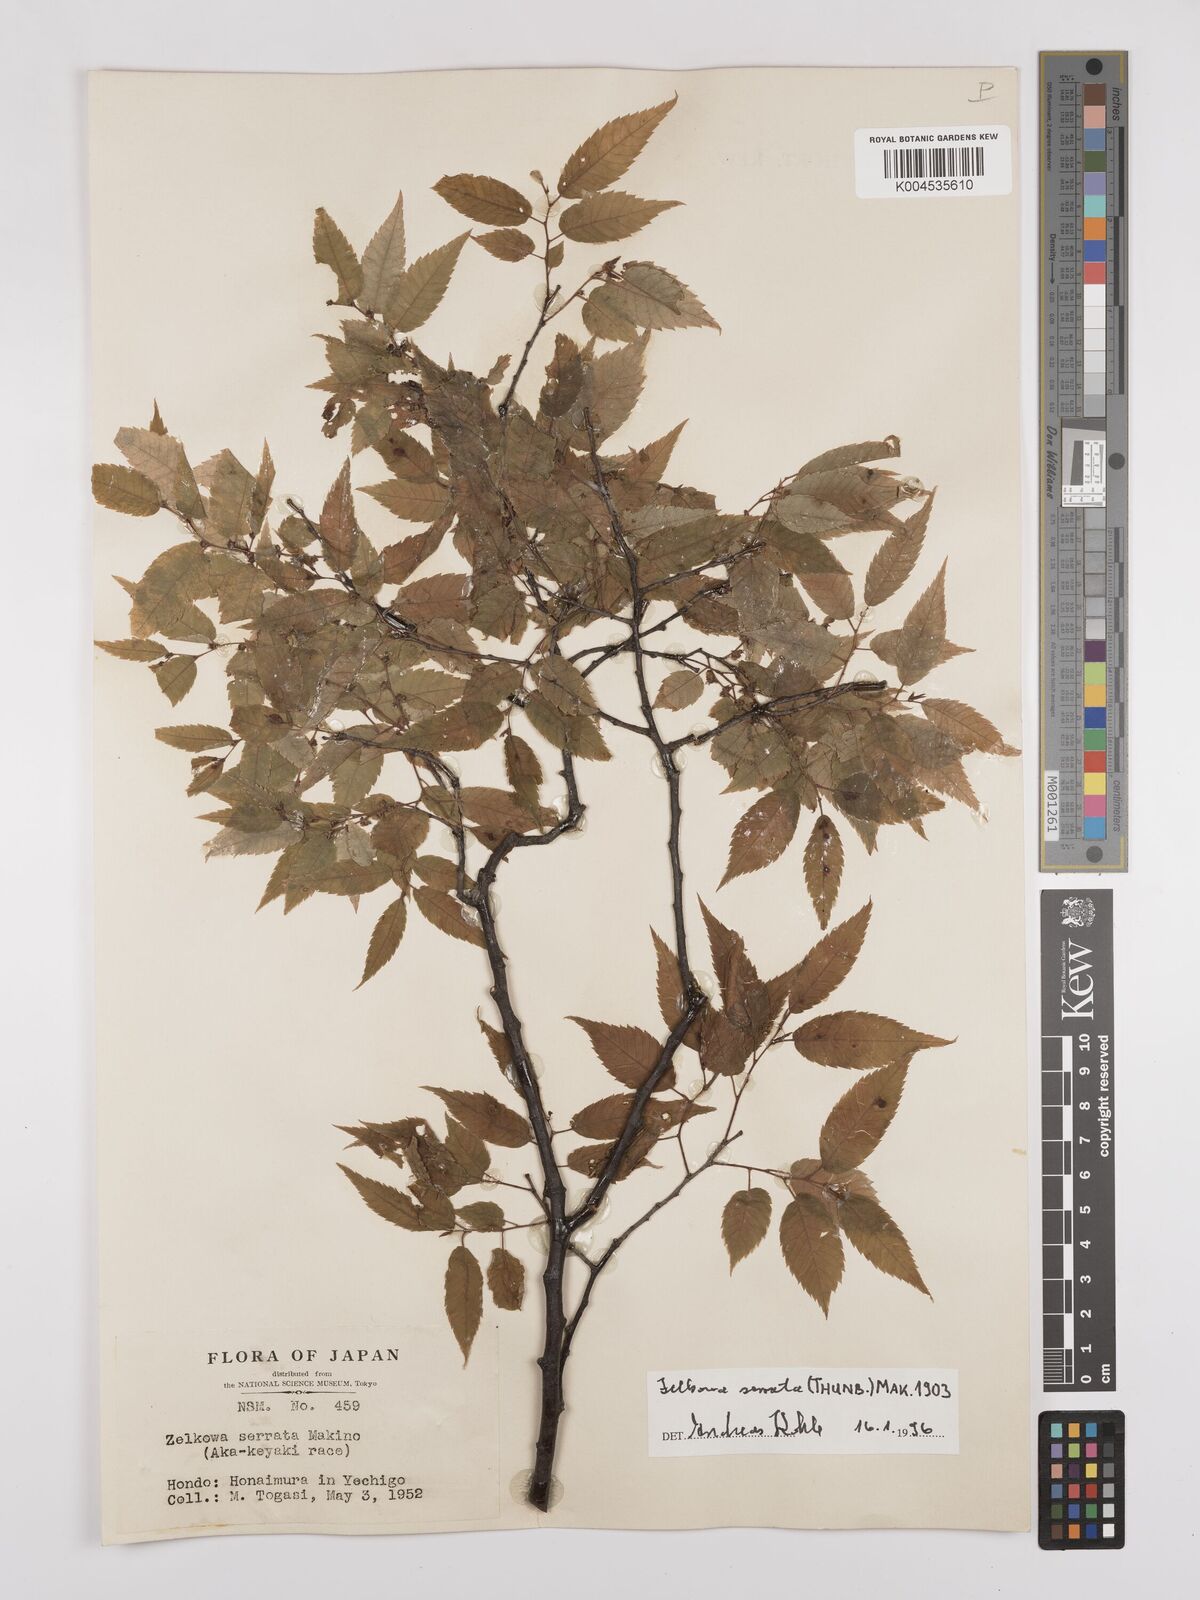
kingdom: Plantae
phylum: Tracheophyta
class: Magnoliopsida
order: Rosales
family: Ulmaceae
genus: Zelkova
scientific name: Zelkova serrata
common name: Japanese zelkova
